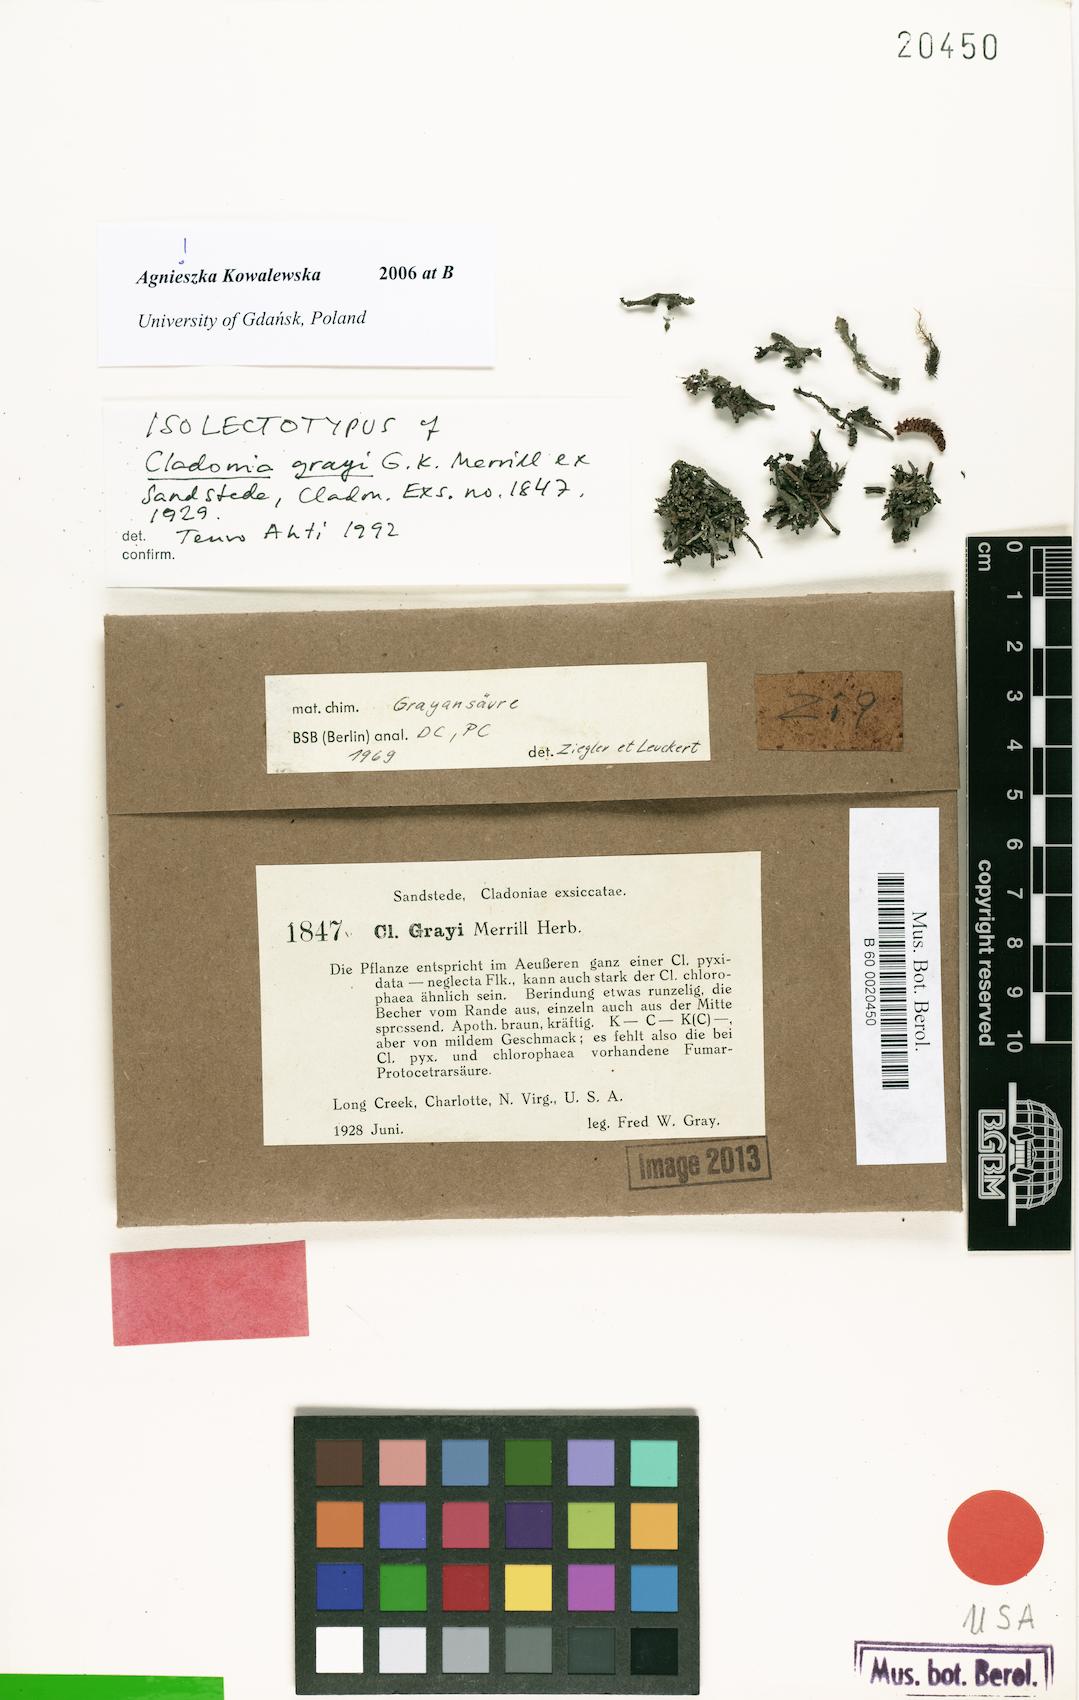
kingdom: Fungi
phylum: Ascomycota
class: Lecanoromycetes
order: Lecanorales
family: Cladoniaceae
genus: Cladonia
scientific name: Cladonia grayi
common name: Gray's cup lichen
